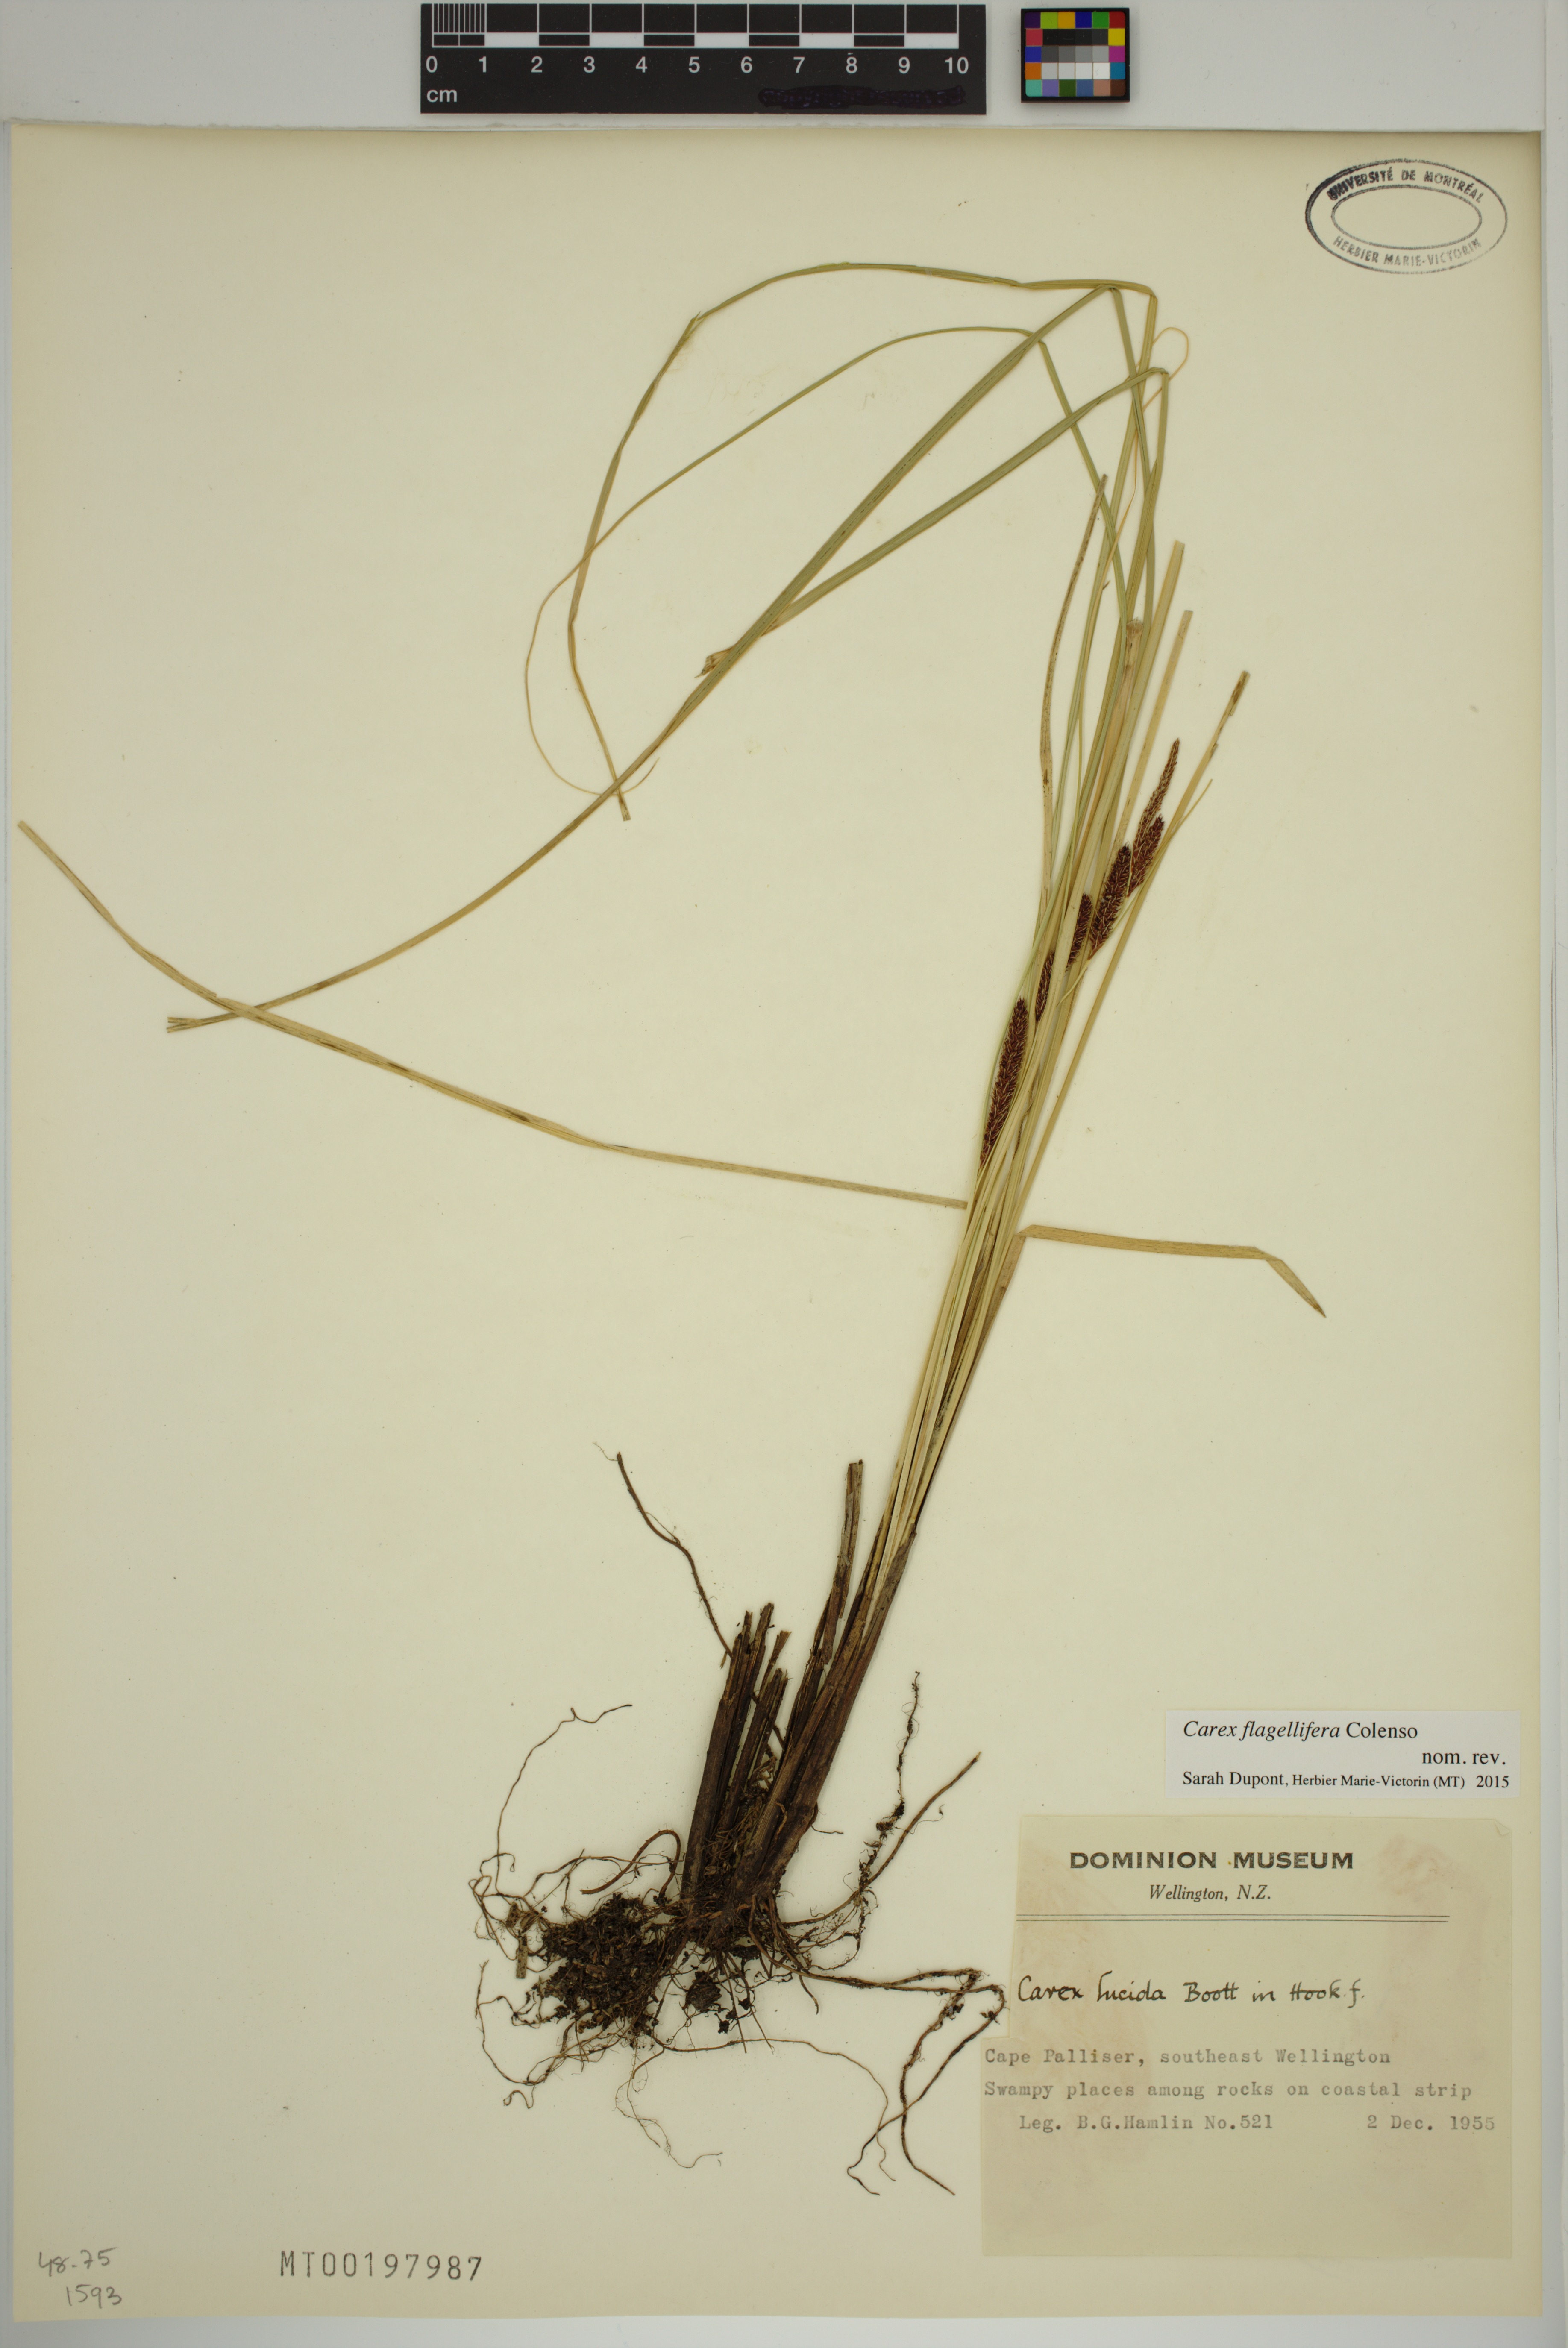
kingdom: Plantae
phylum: Tracheophyta
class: Liliopsida
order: Poales
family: Cyperaceae
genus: Carex
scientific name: Carex flagellifera
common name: Glen murray tussock
